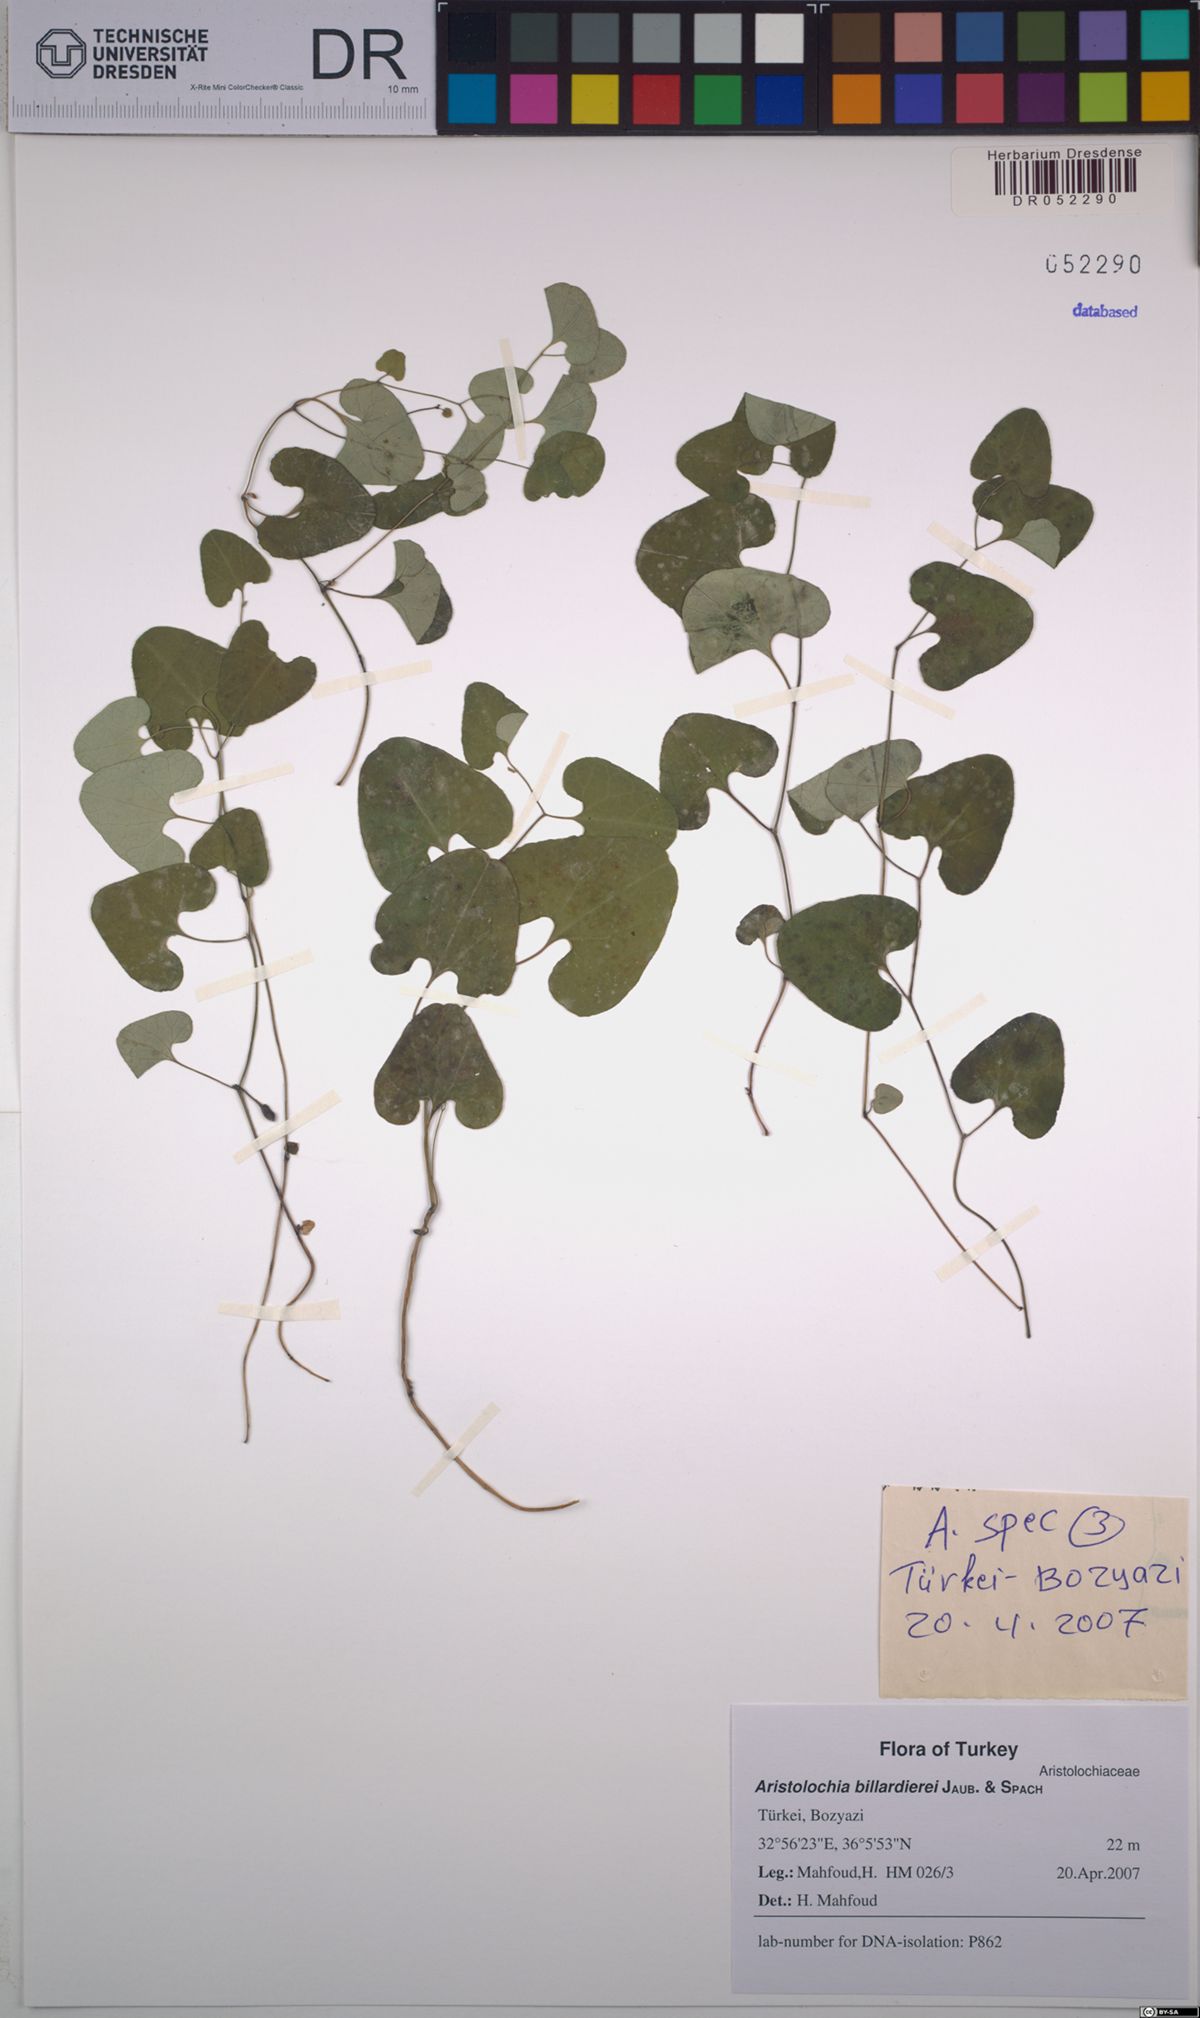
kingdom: Plantae
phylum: Tracheophyta
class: Magnoliopsida
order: Piperales
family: Aristolochiaceae
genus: Aristolochia
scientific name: Aristolochia billardieri
